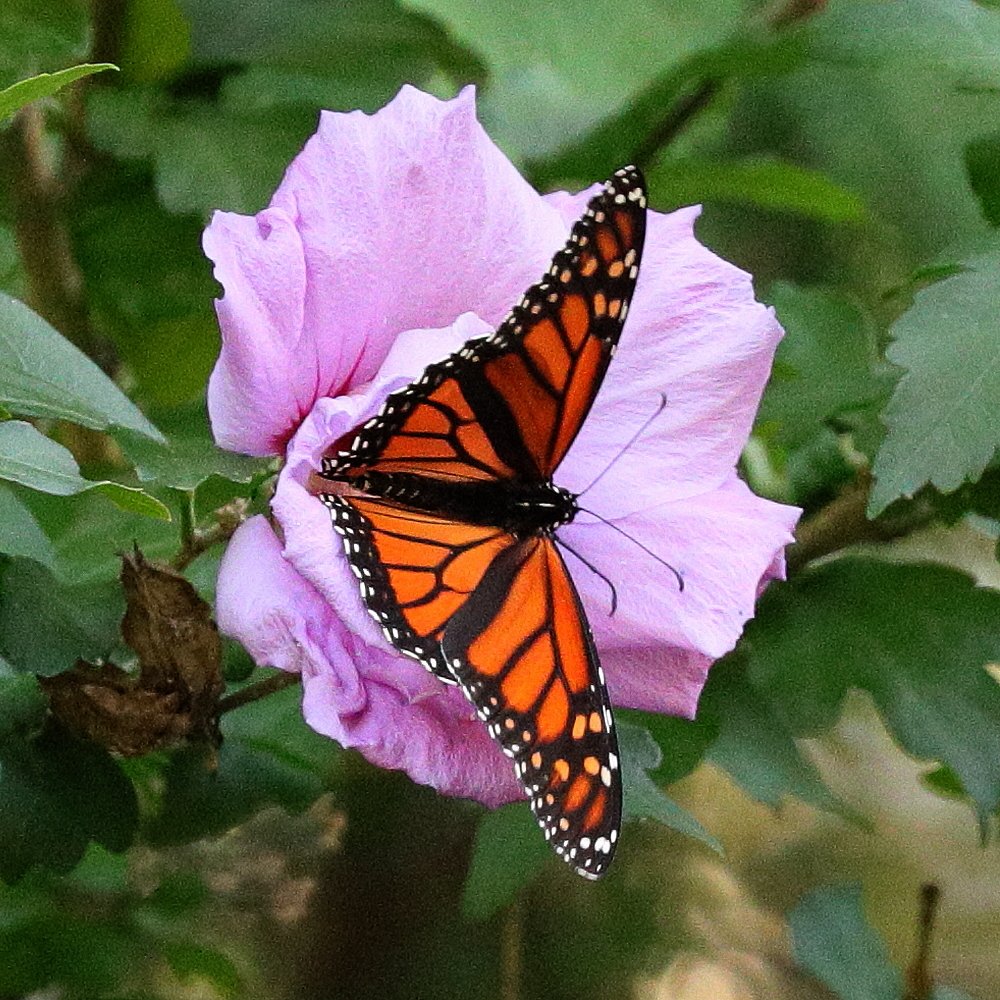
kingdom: Animalia
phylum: Arthropoda
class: Insecta
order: Lepidoptera
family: Nymphalidae
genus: Danaus
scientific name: Danaus plexippus
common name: Monarch
